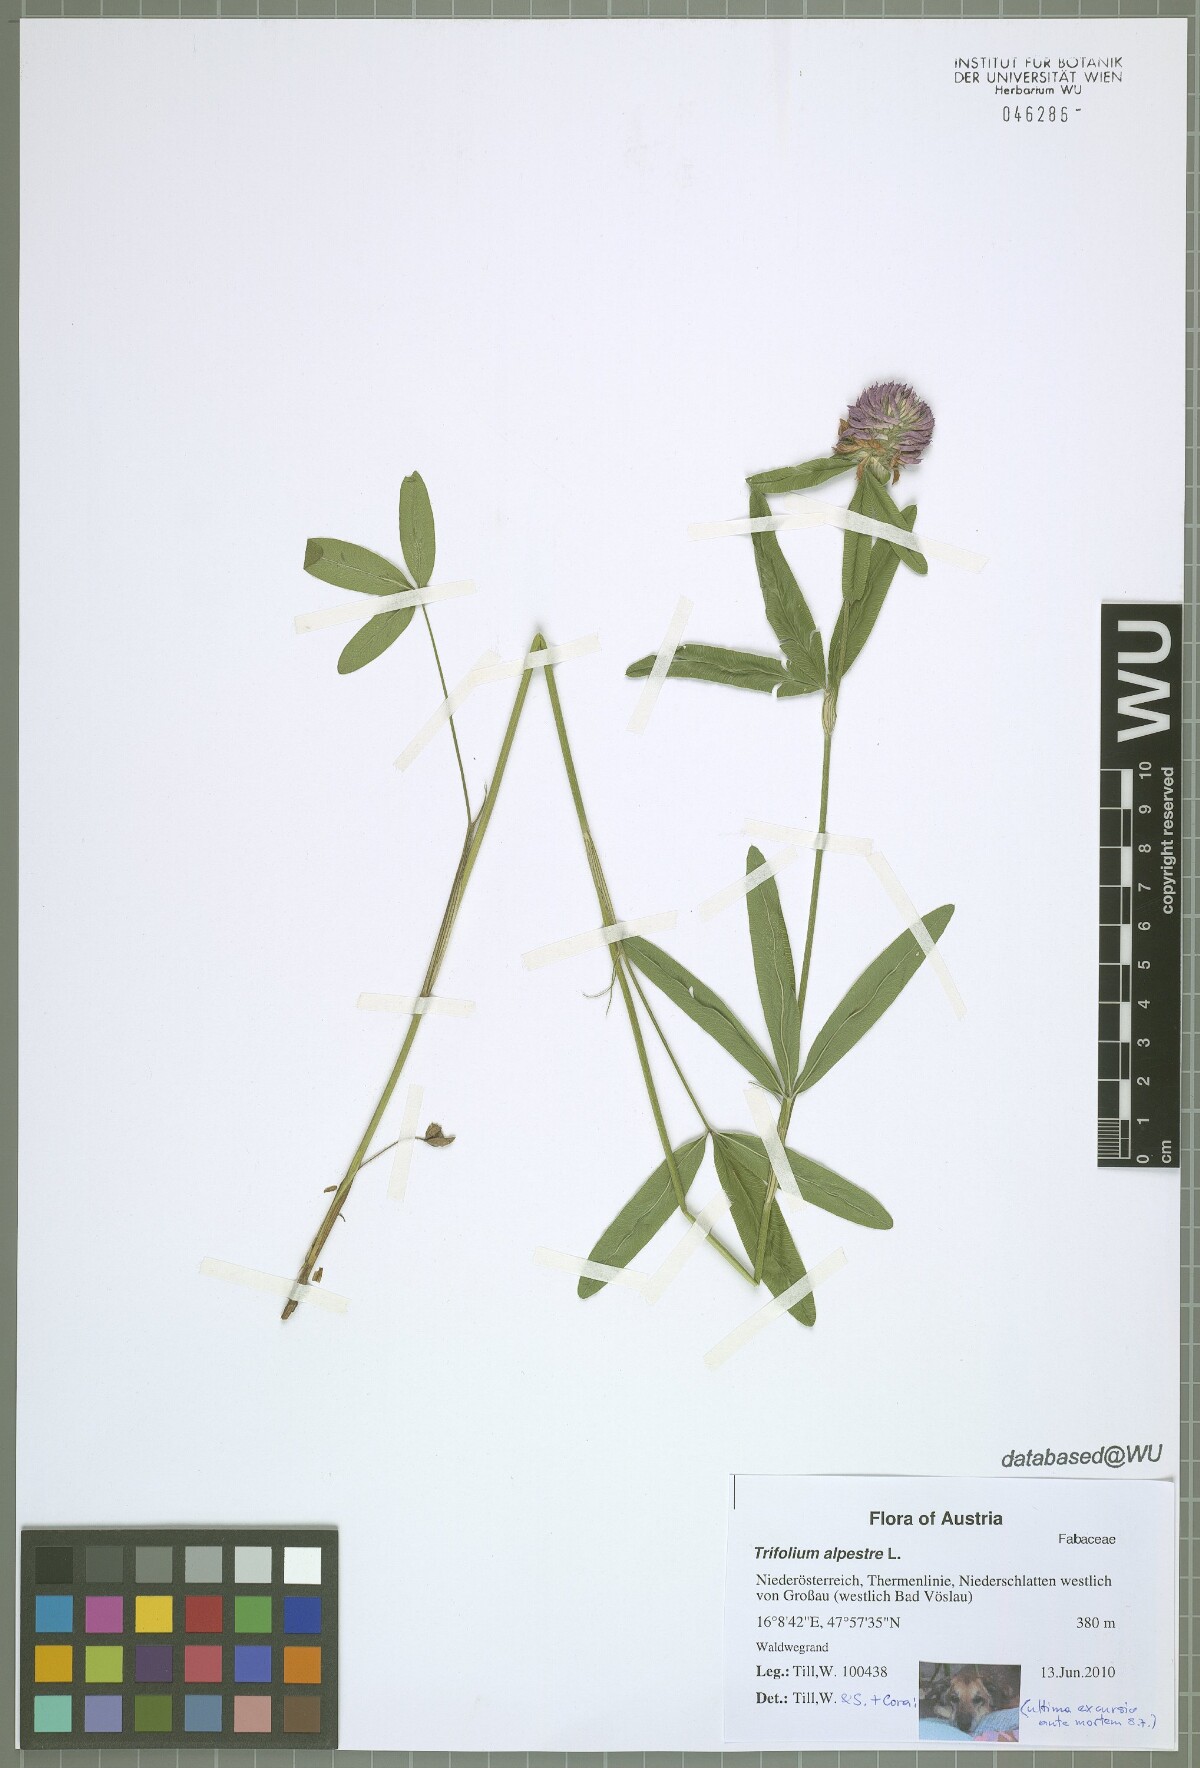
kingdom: Plantae
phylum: Tracheophyta
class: Magnoliopsida
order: Fabales
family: Fabaceae
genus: Trifolium
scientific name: Trifolium alpestre
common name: Owl-head clover
